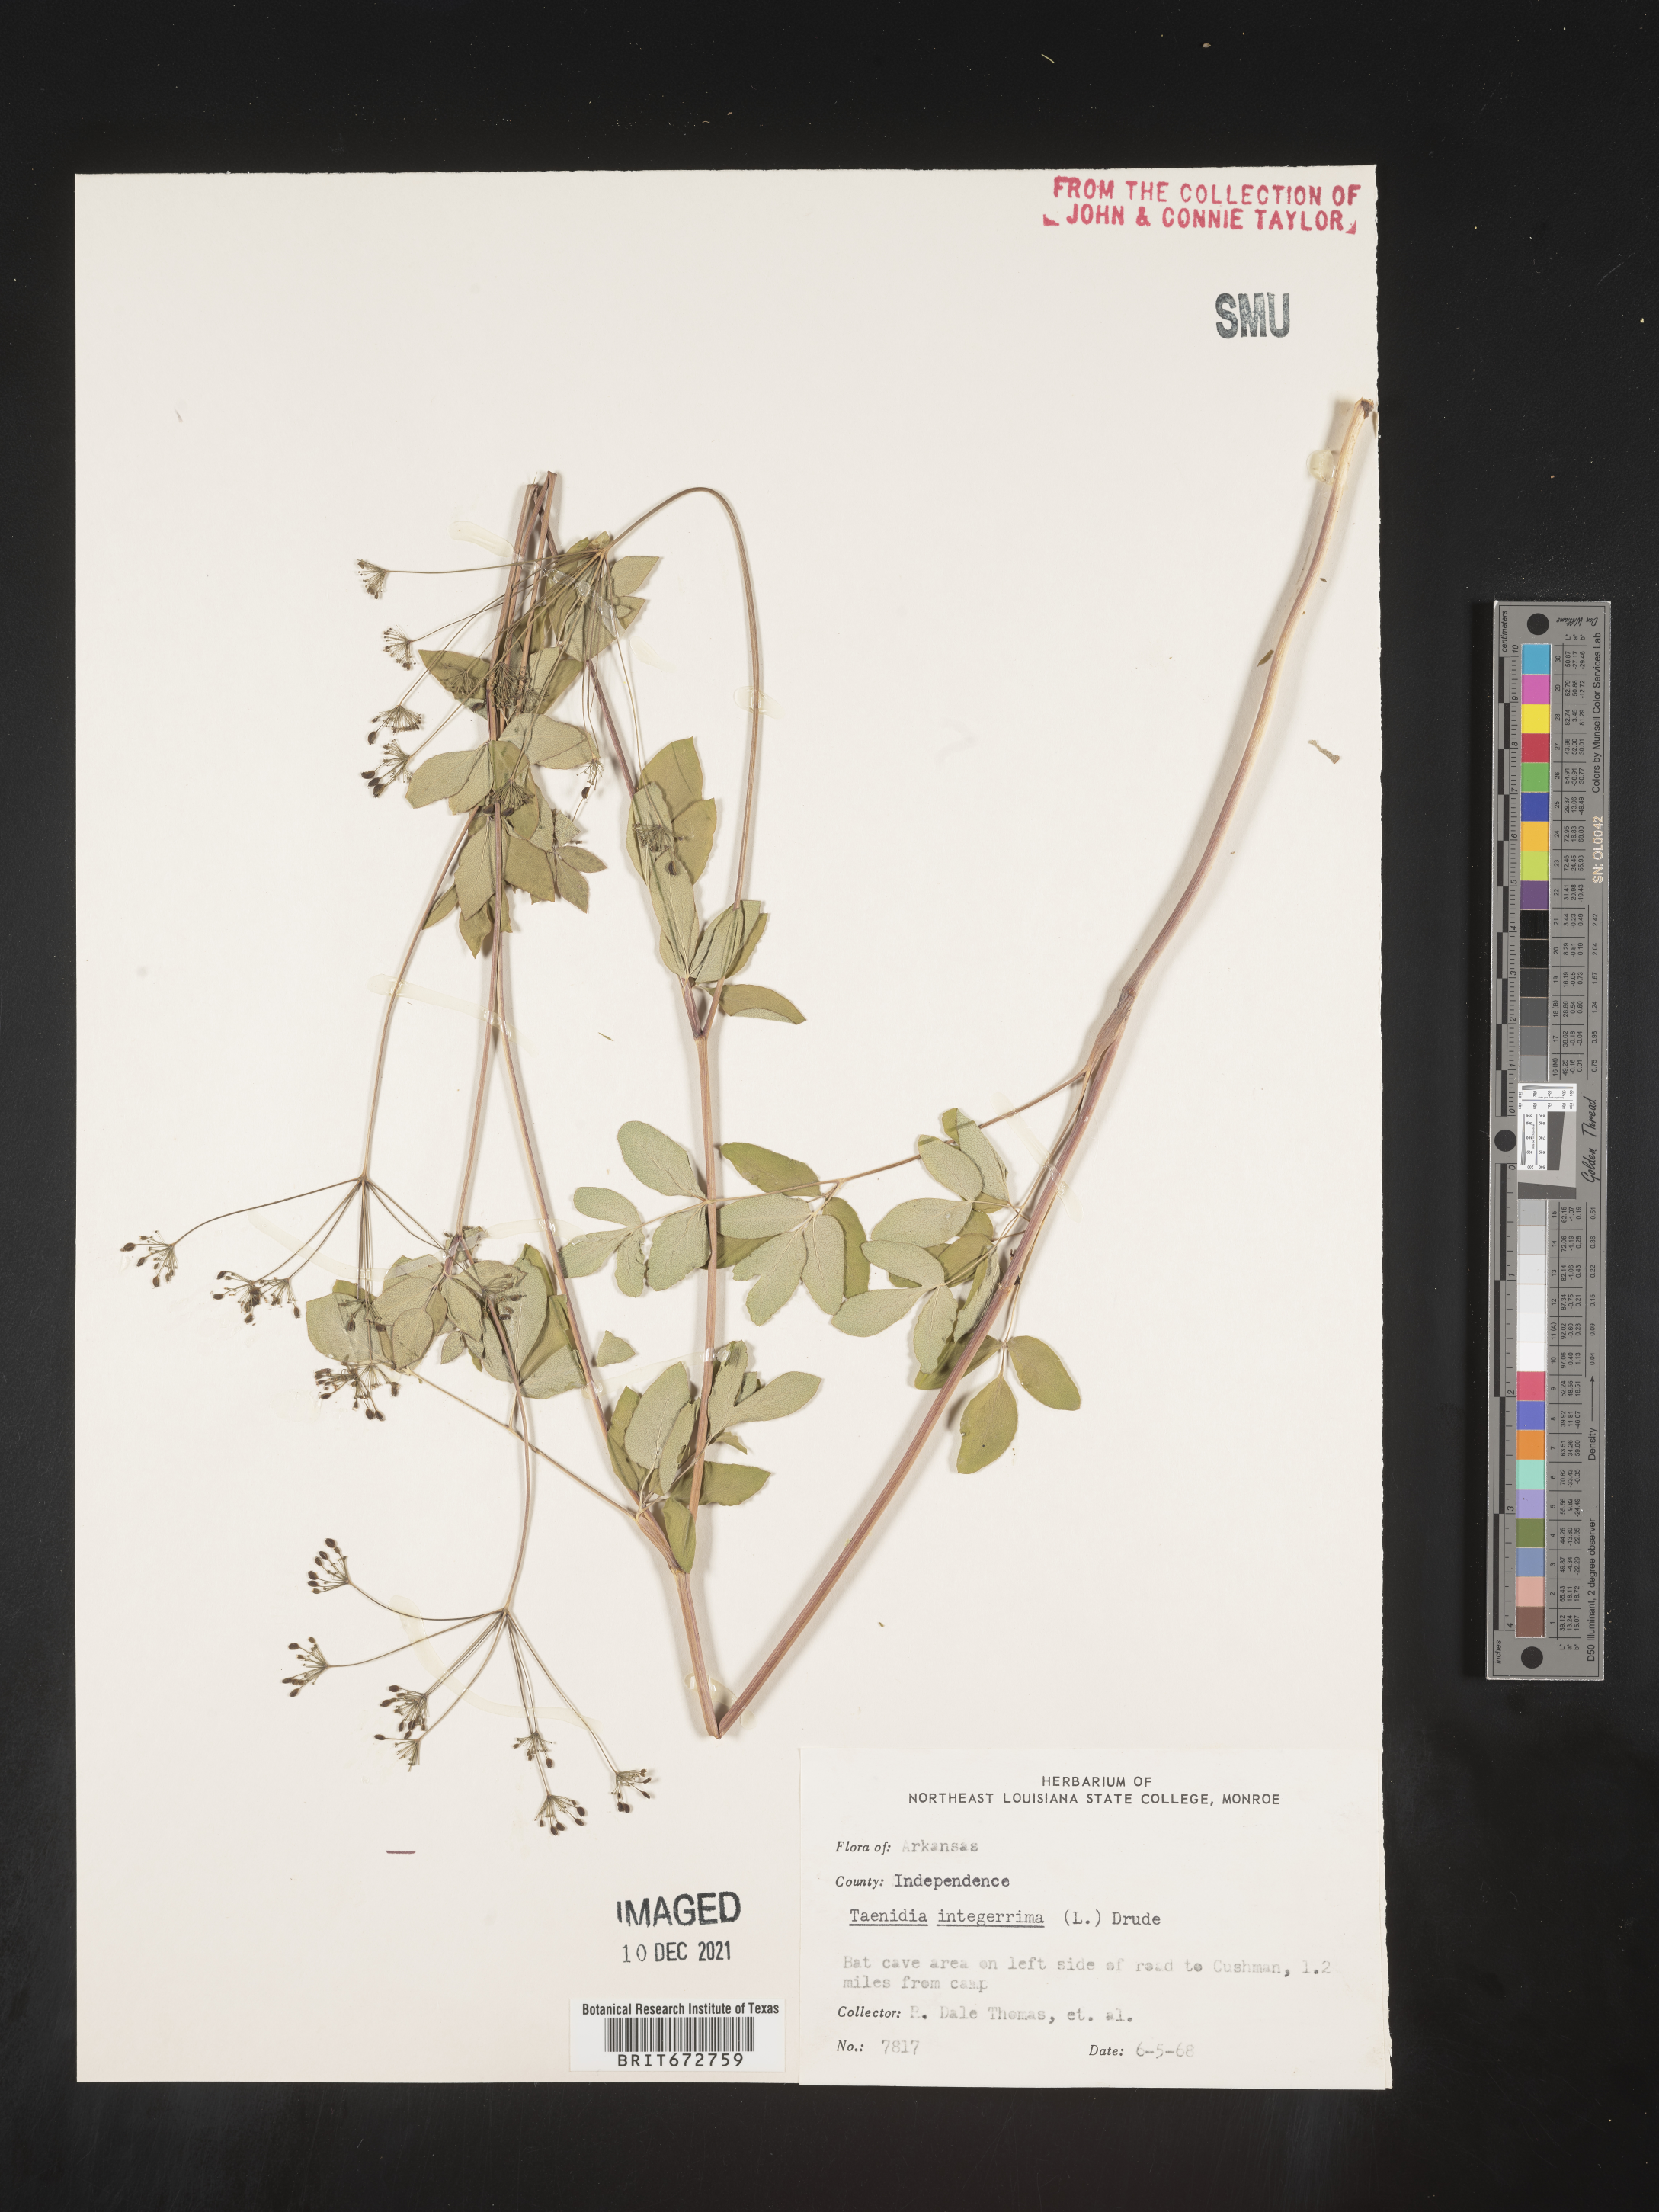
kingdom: Plantae
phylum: Tracheophyta
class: Magnoliopsida
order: Apiales
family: Apiaceae
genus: Taenidia
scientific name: Taenidia integerrima
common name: Golden alexander
